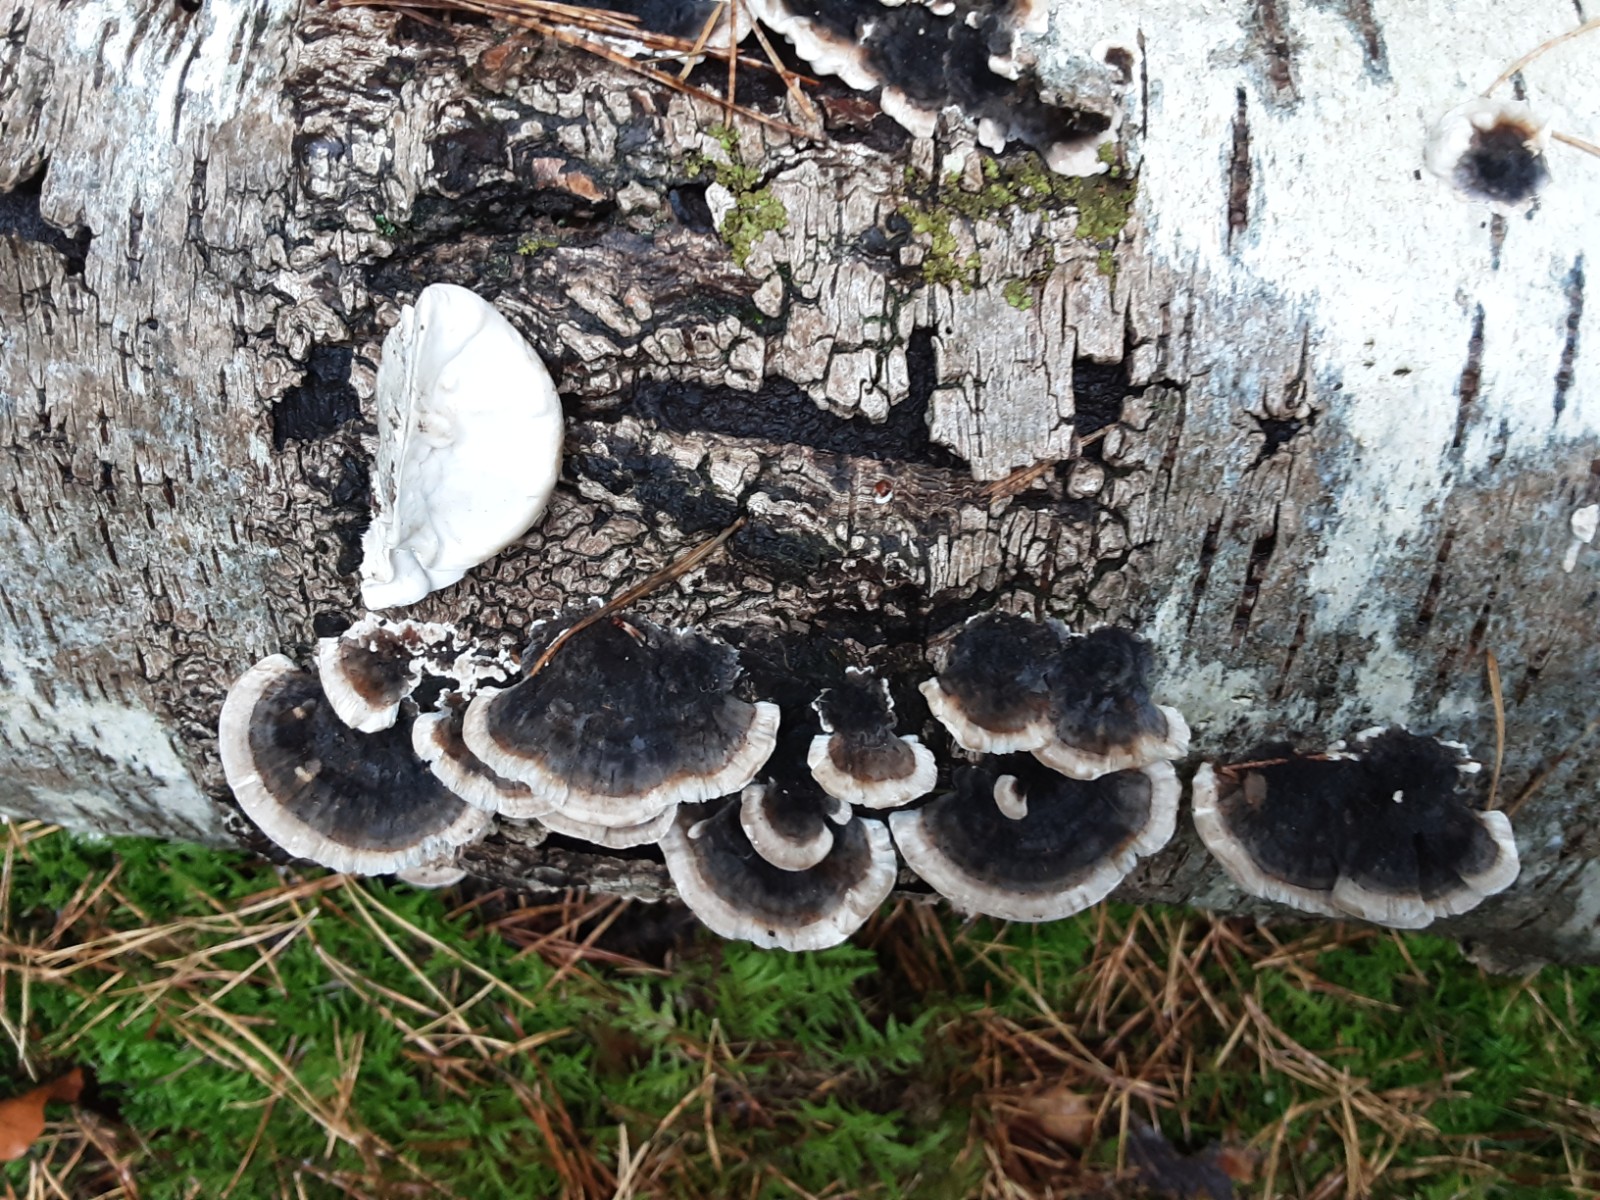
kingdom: Fungi
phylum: Basidiomycota
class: Agaricomycetes
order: Polyporales
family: Polyporaceae
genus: Trametes
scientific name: Trametes versicolor
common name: broget læderporesvamp
